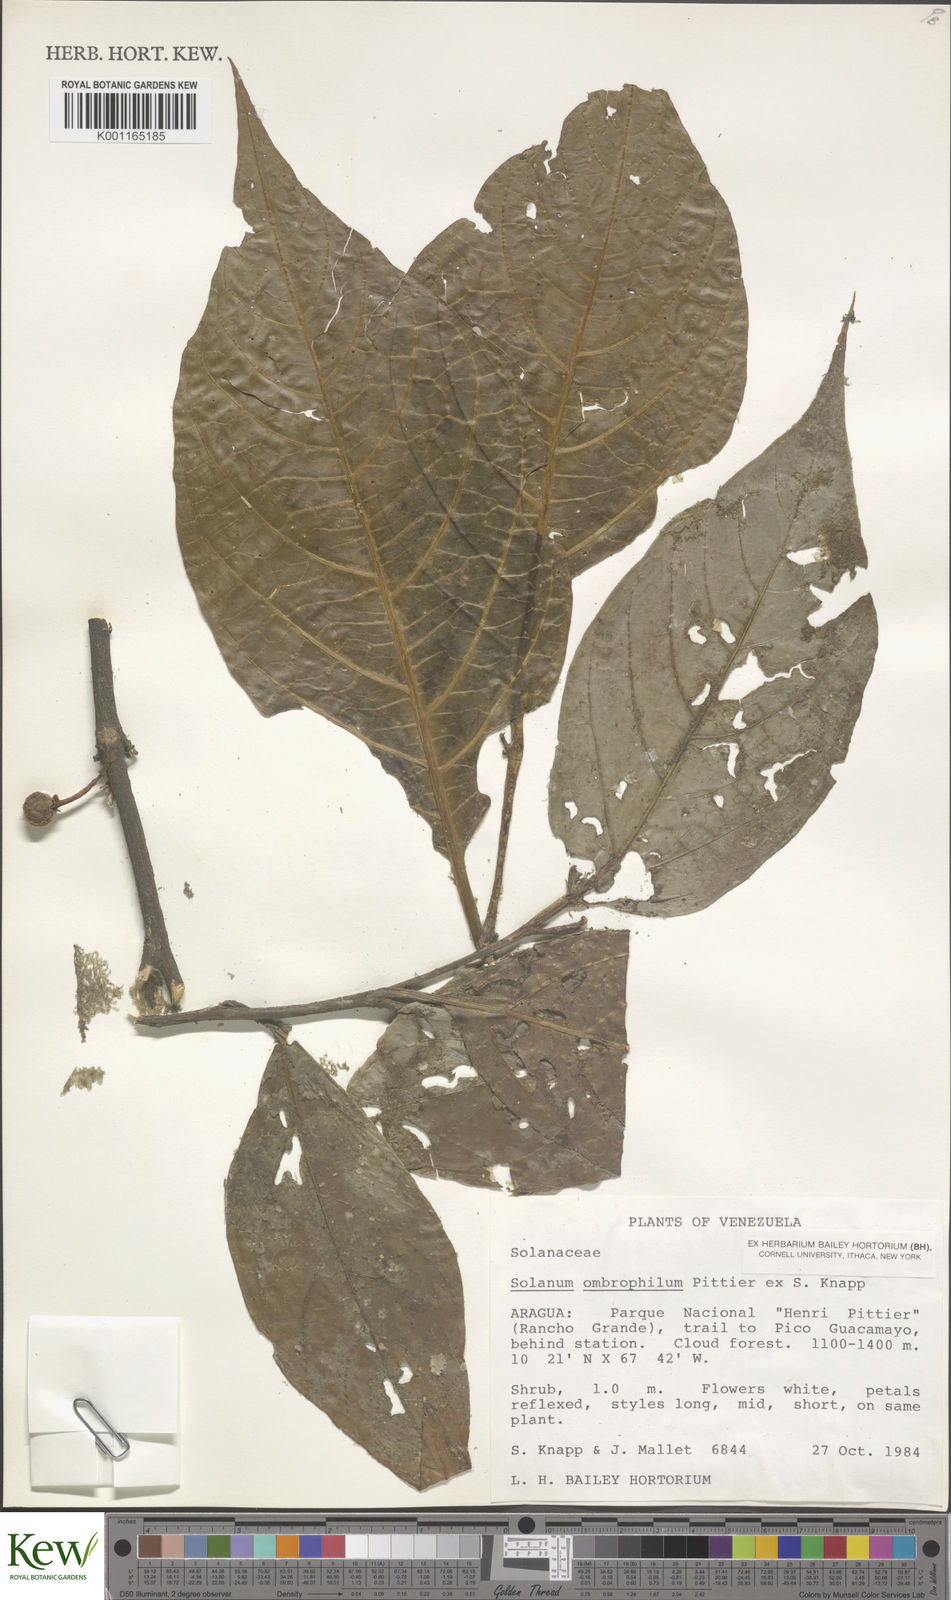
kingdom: Plantae
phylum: Tracheophyta
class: Magnoliopsida
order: Solanales
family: Solanaceae
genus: Solanum
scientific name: Solanum ombrophilum
